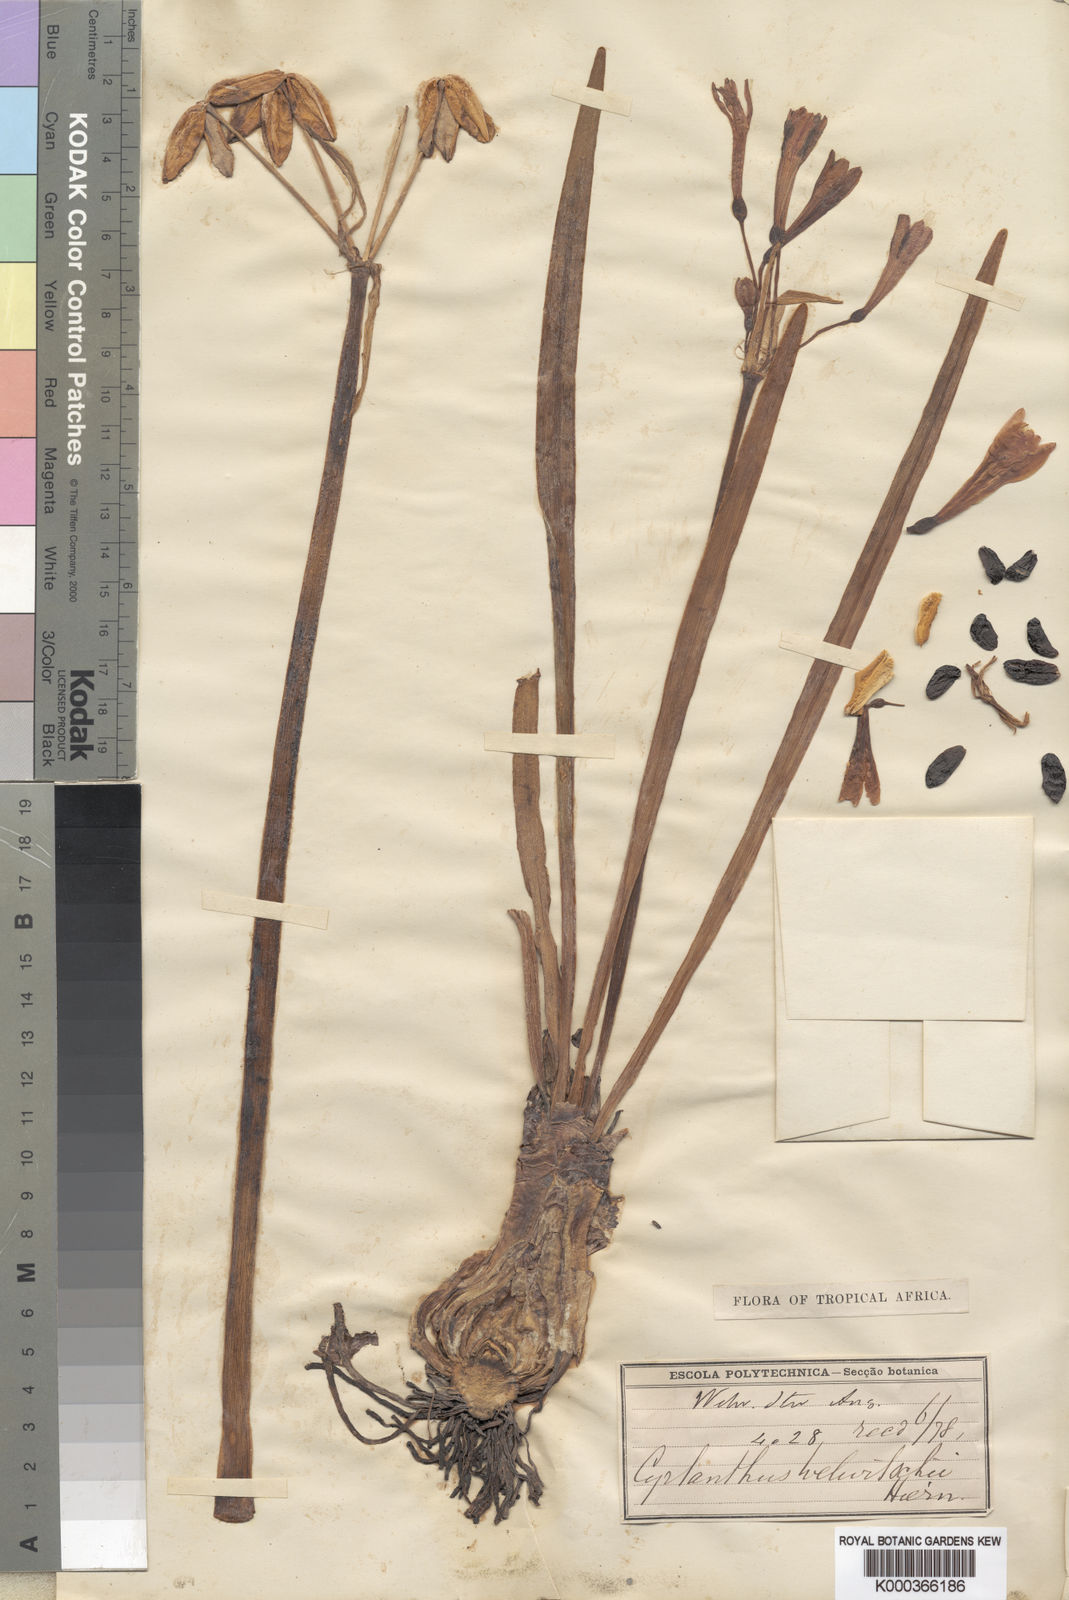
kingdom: Plantae
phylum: Tracheophyta
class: Liliopsida
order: Asparagales
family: Amaryllidaceae
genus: Cyrtanthus
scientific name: Cyrtanthus welwitschii
